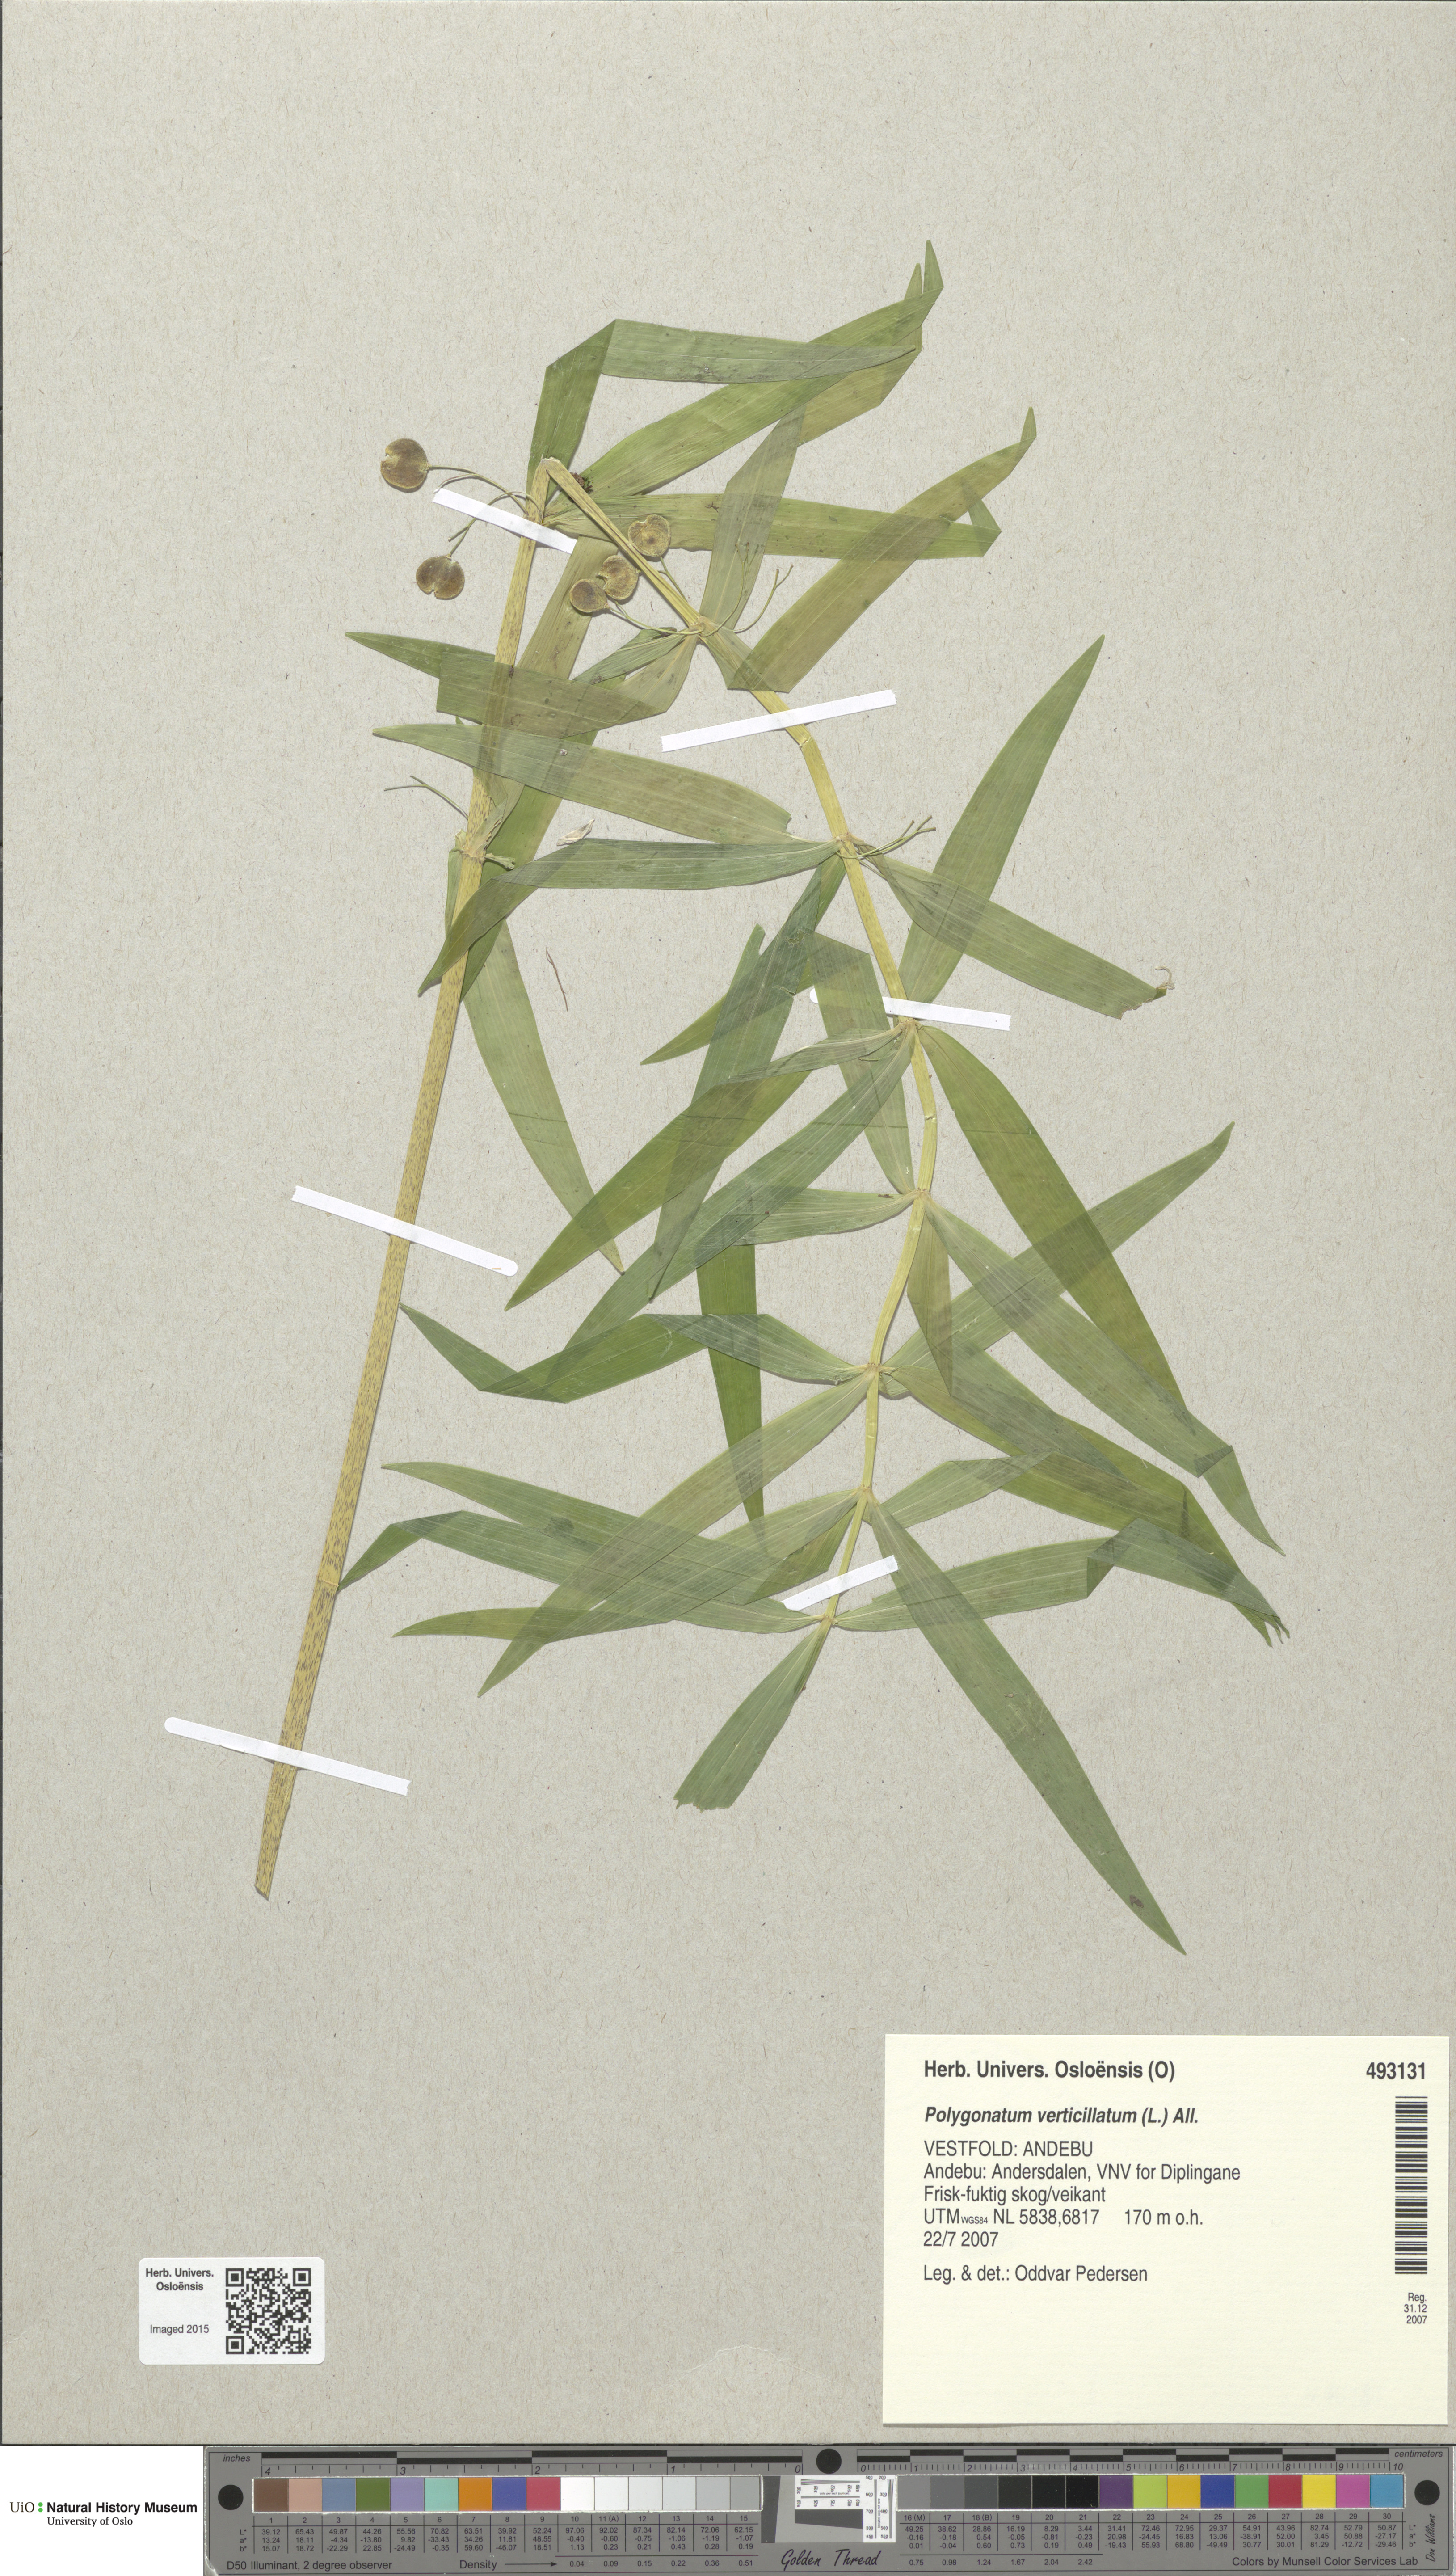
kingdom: Plantae
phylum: Tracheophyta
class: Liliopsida
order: Asparagales
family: Asparagaceae
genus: Polygonatum
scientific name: Polygonatum verticillatum
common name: Whorled solomon's-seal
